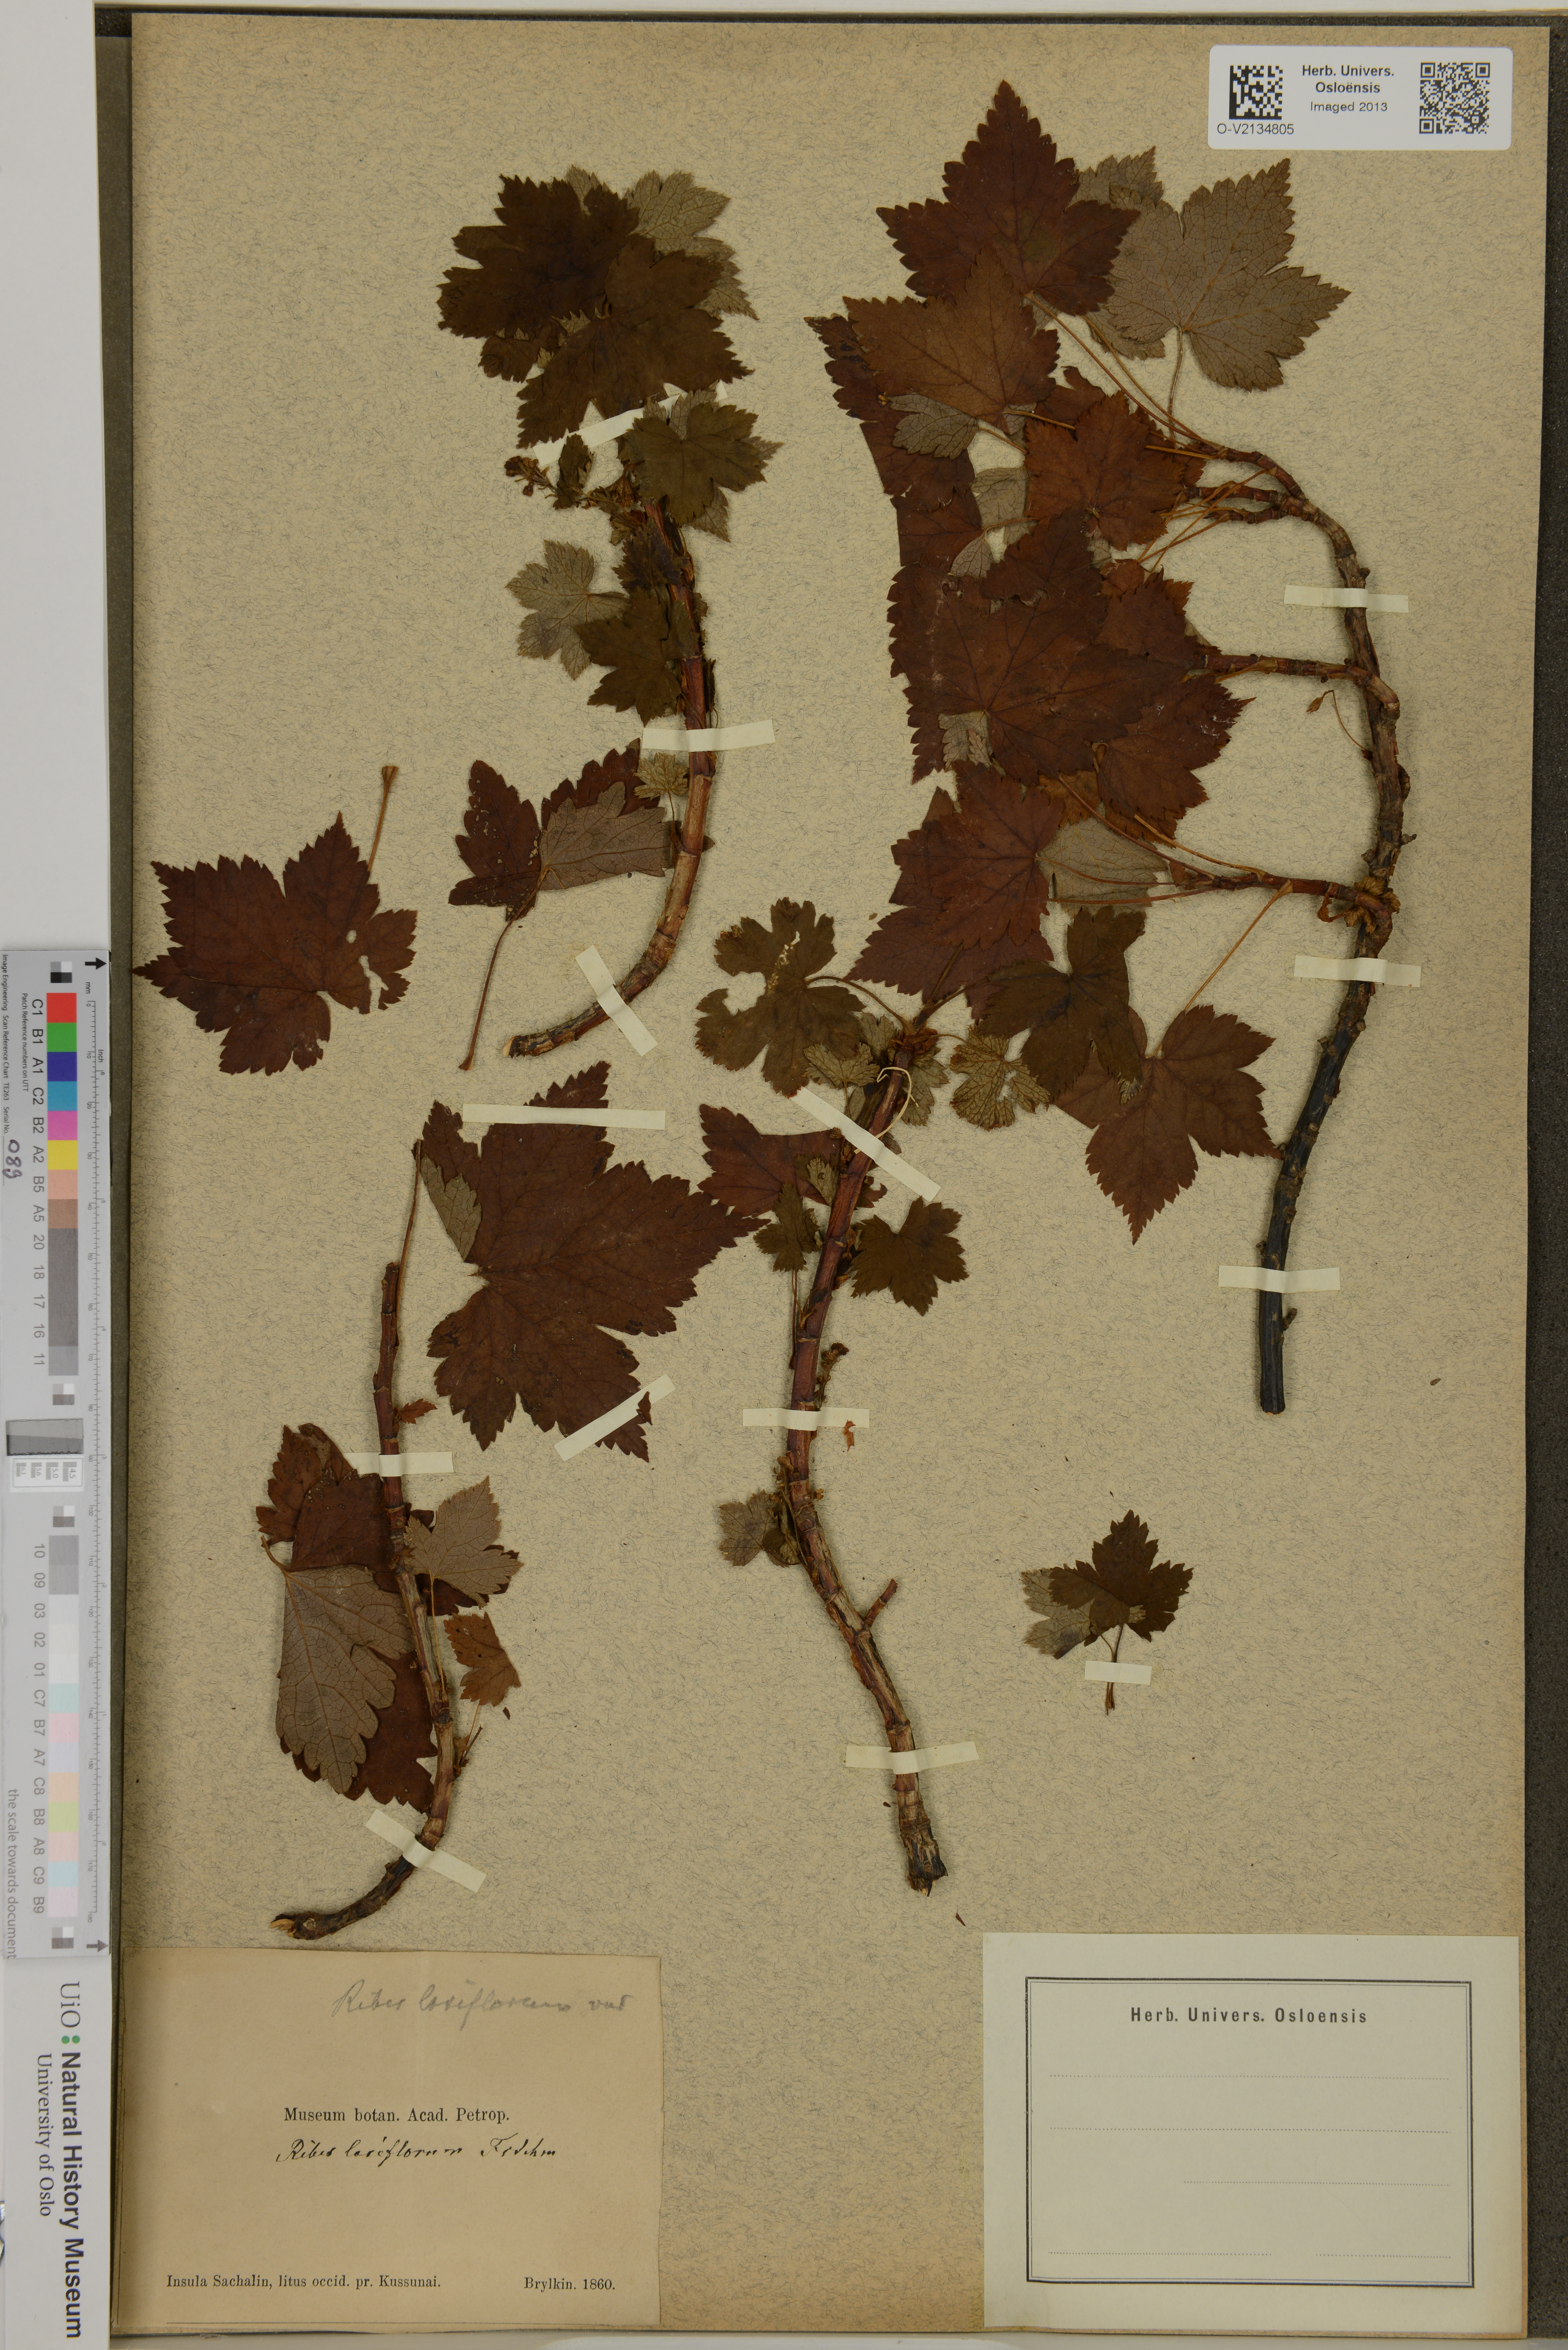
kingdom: Plantae
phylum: Tracheophyta
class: Magnoliopsida
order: Saxifragales
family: Grossulariaceae
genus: Ribes
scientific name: Ribes laxiflorum
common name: Spreading currant
